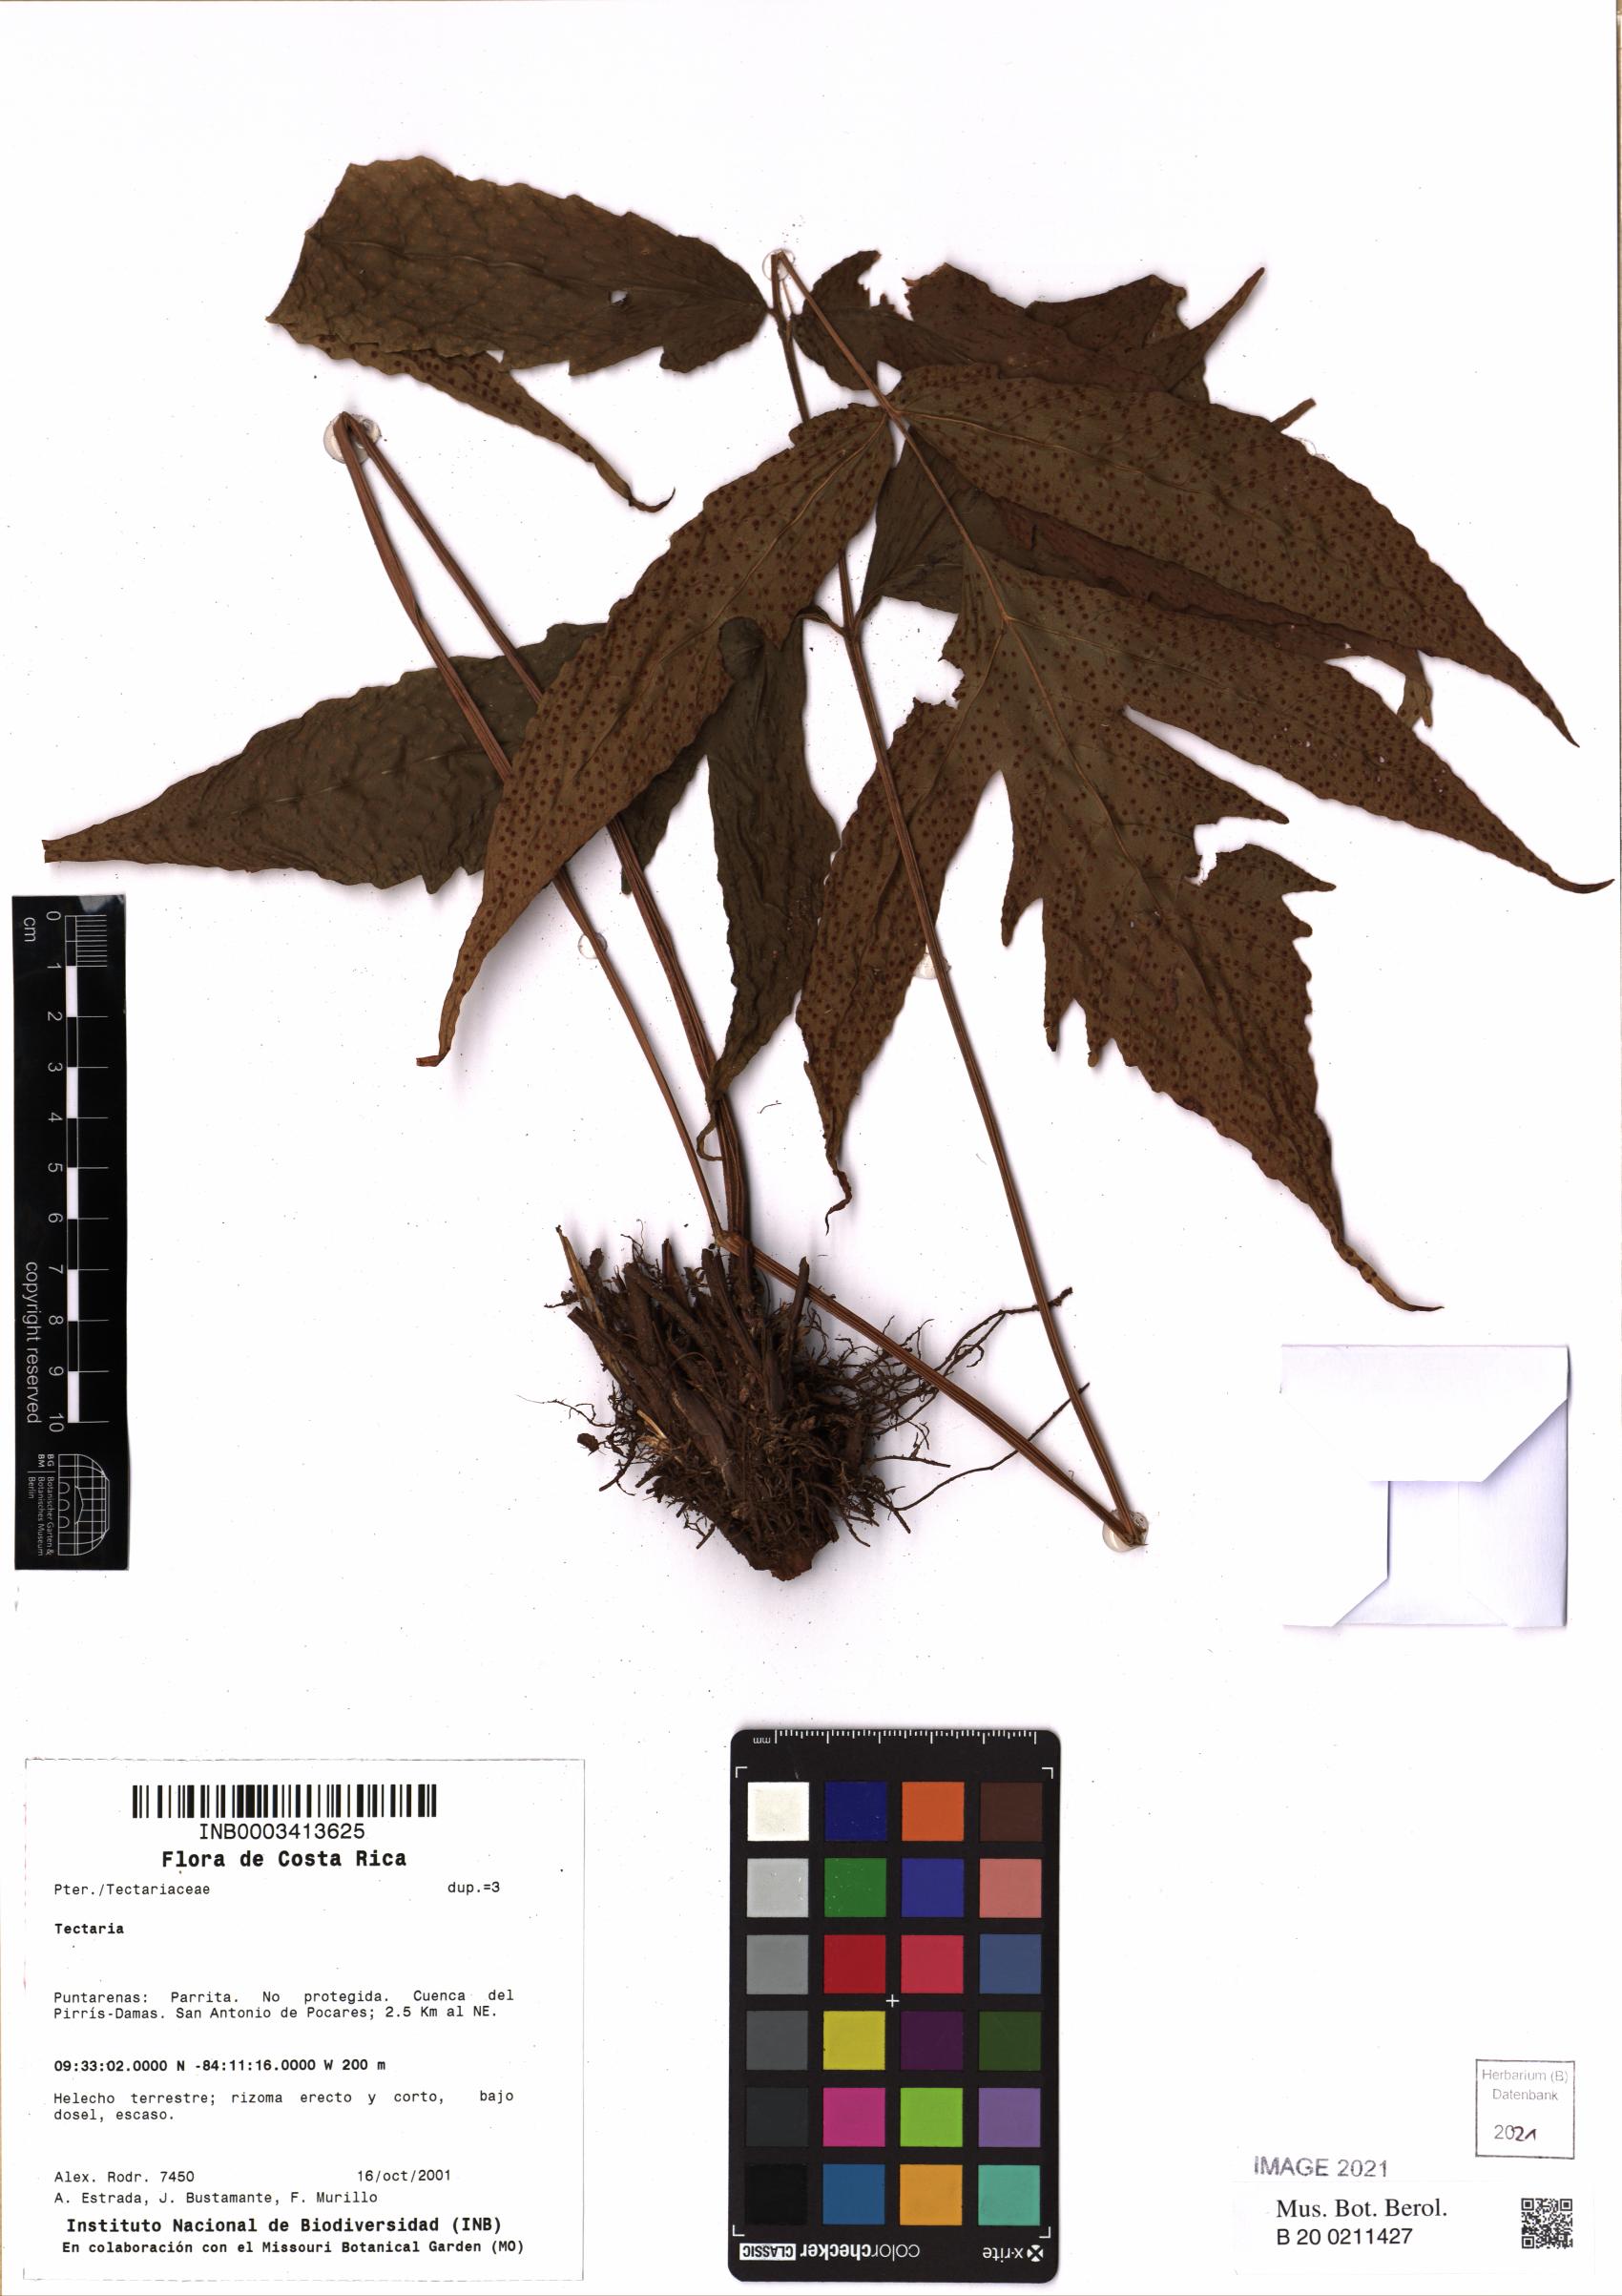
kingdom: Plantae
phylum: Tracheophyta
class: Polypodiopsida
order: Polypodiales
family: Tectariaceae
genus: Tectaria
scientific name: Tectaria incisa
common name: Incised halberd fern
